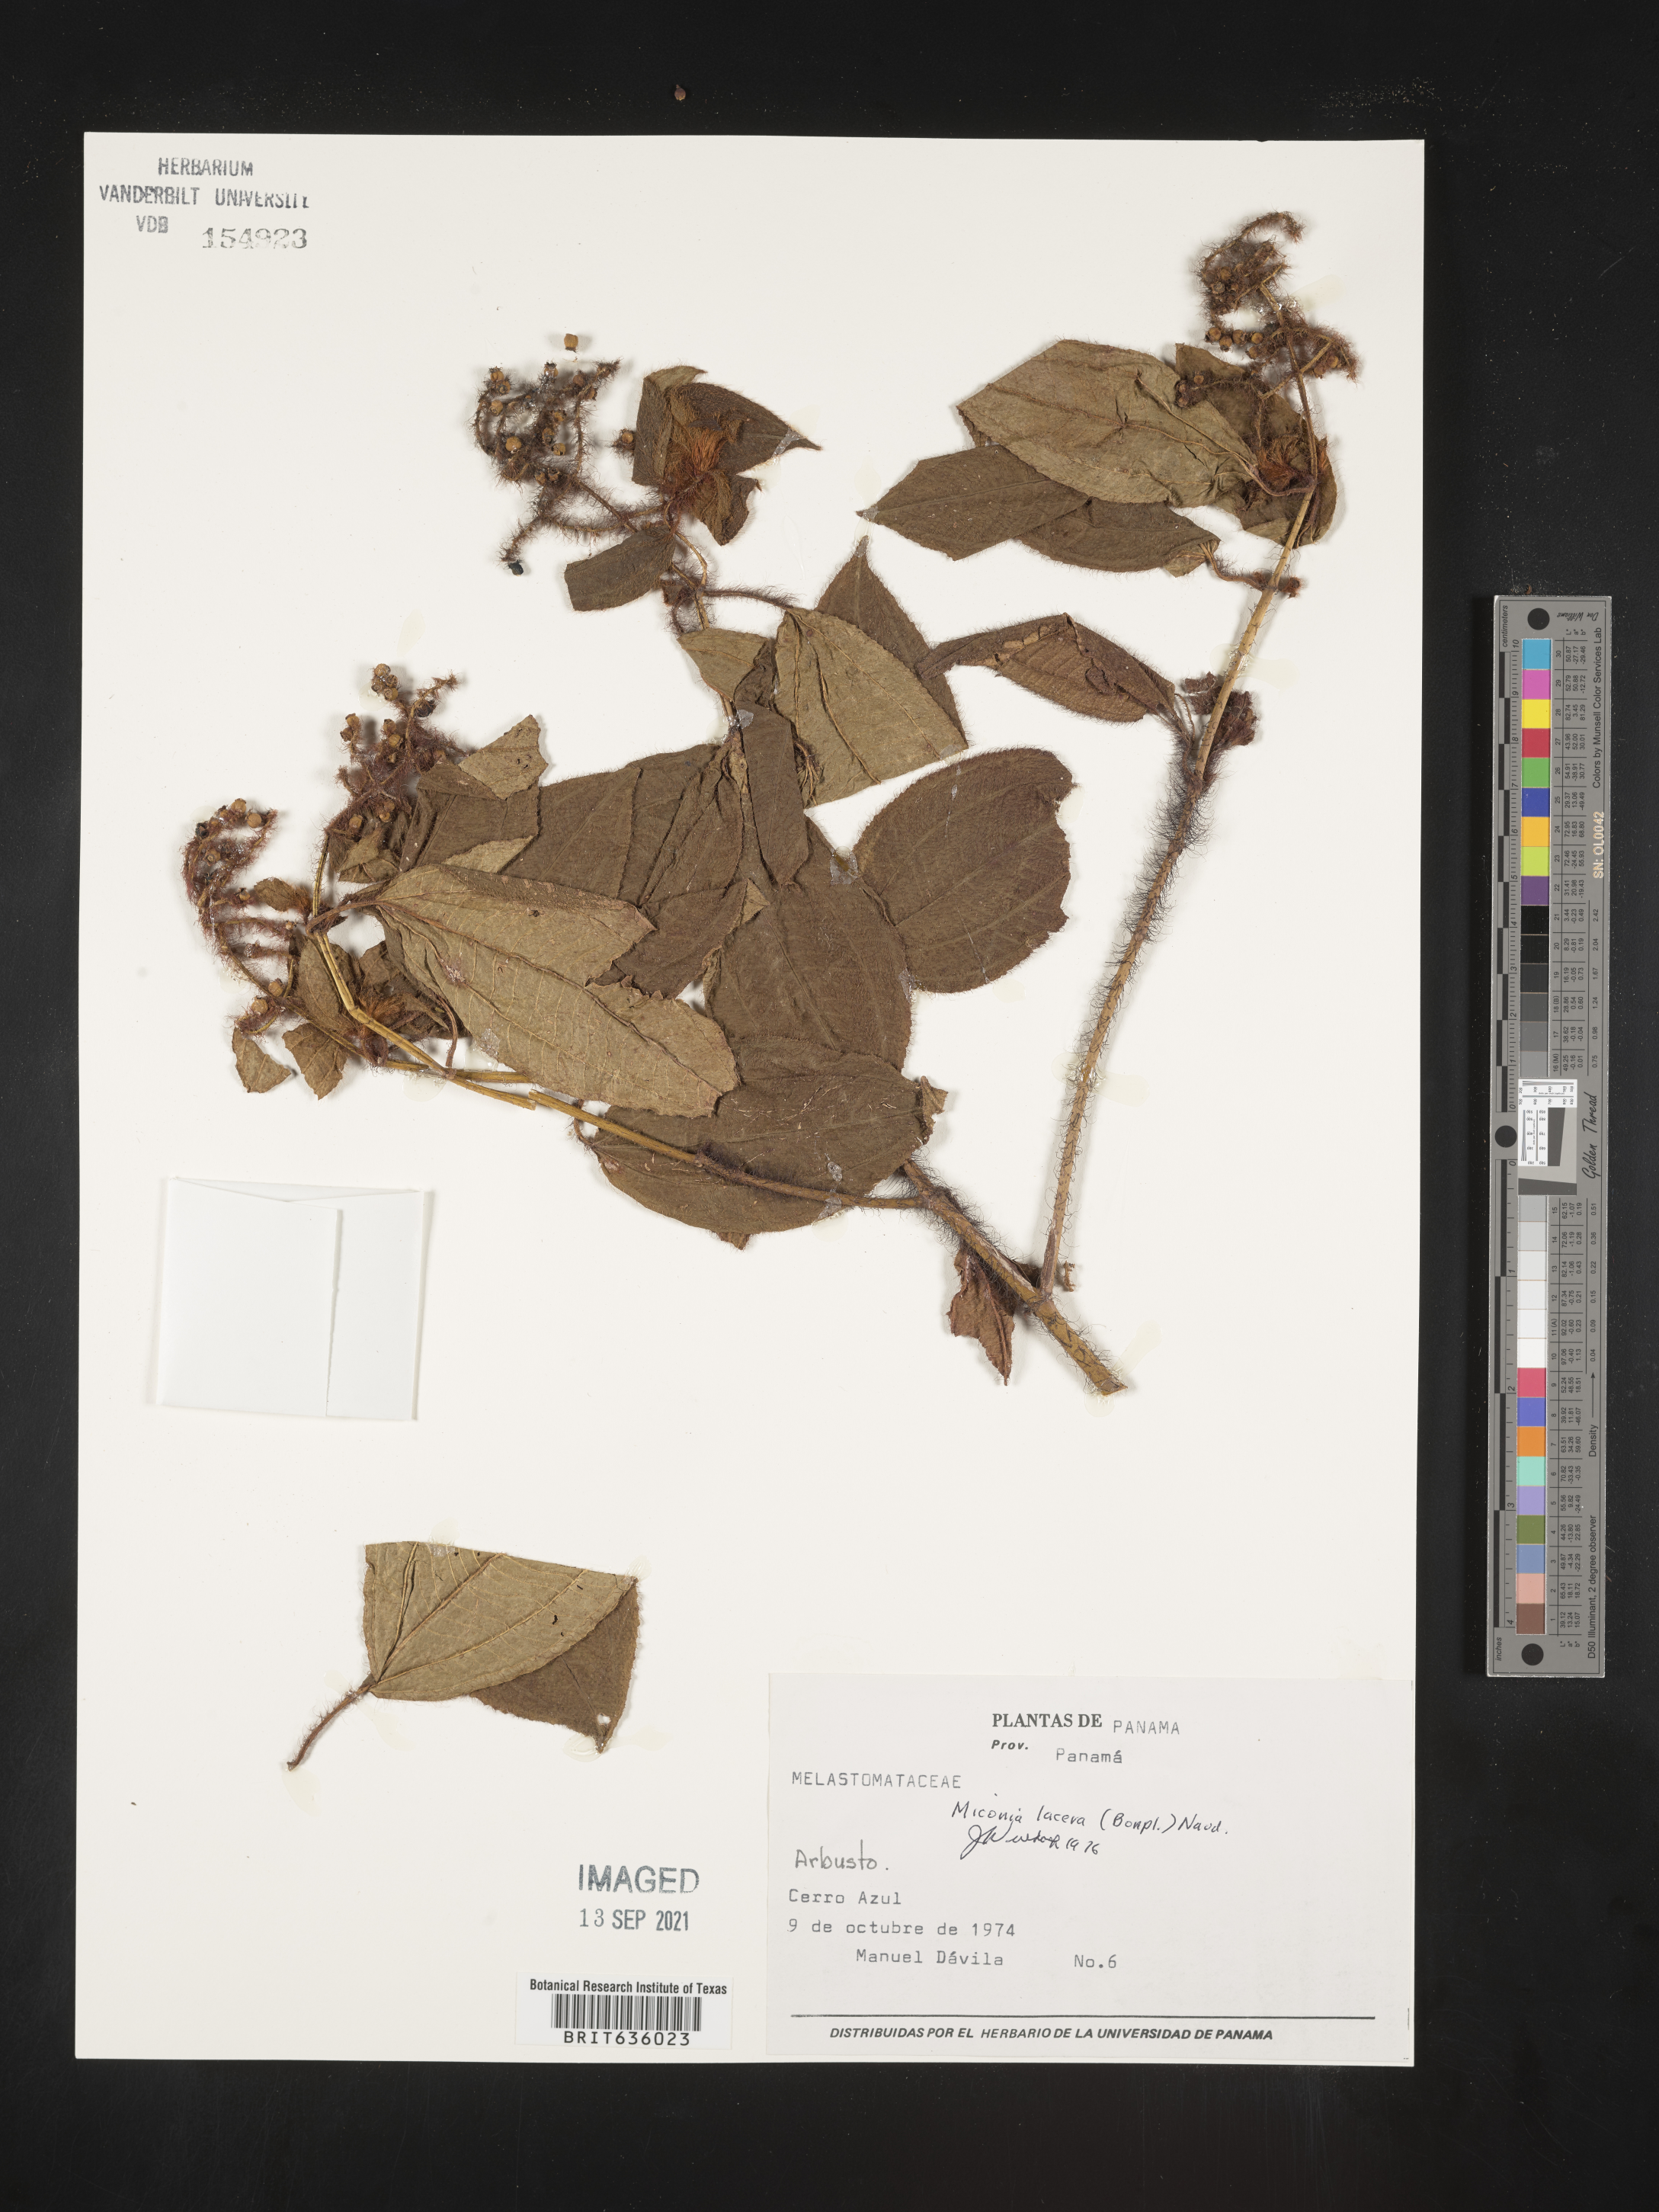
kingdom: Plantae
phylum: Tracheophyta
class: Magnoliopsida
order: Myrtales
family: Melastomataceae
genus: Miconia
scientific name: Miconia
